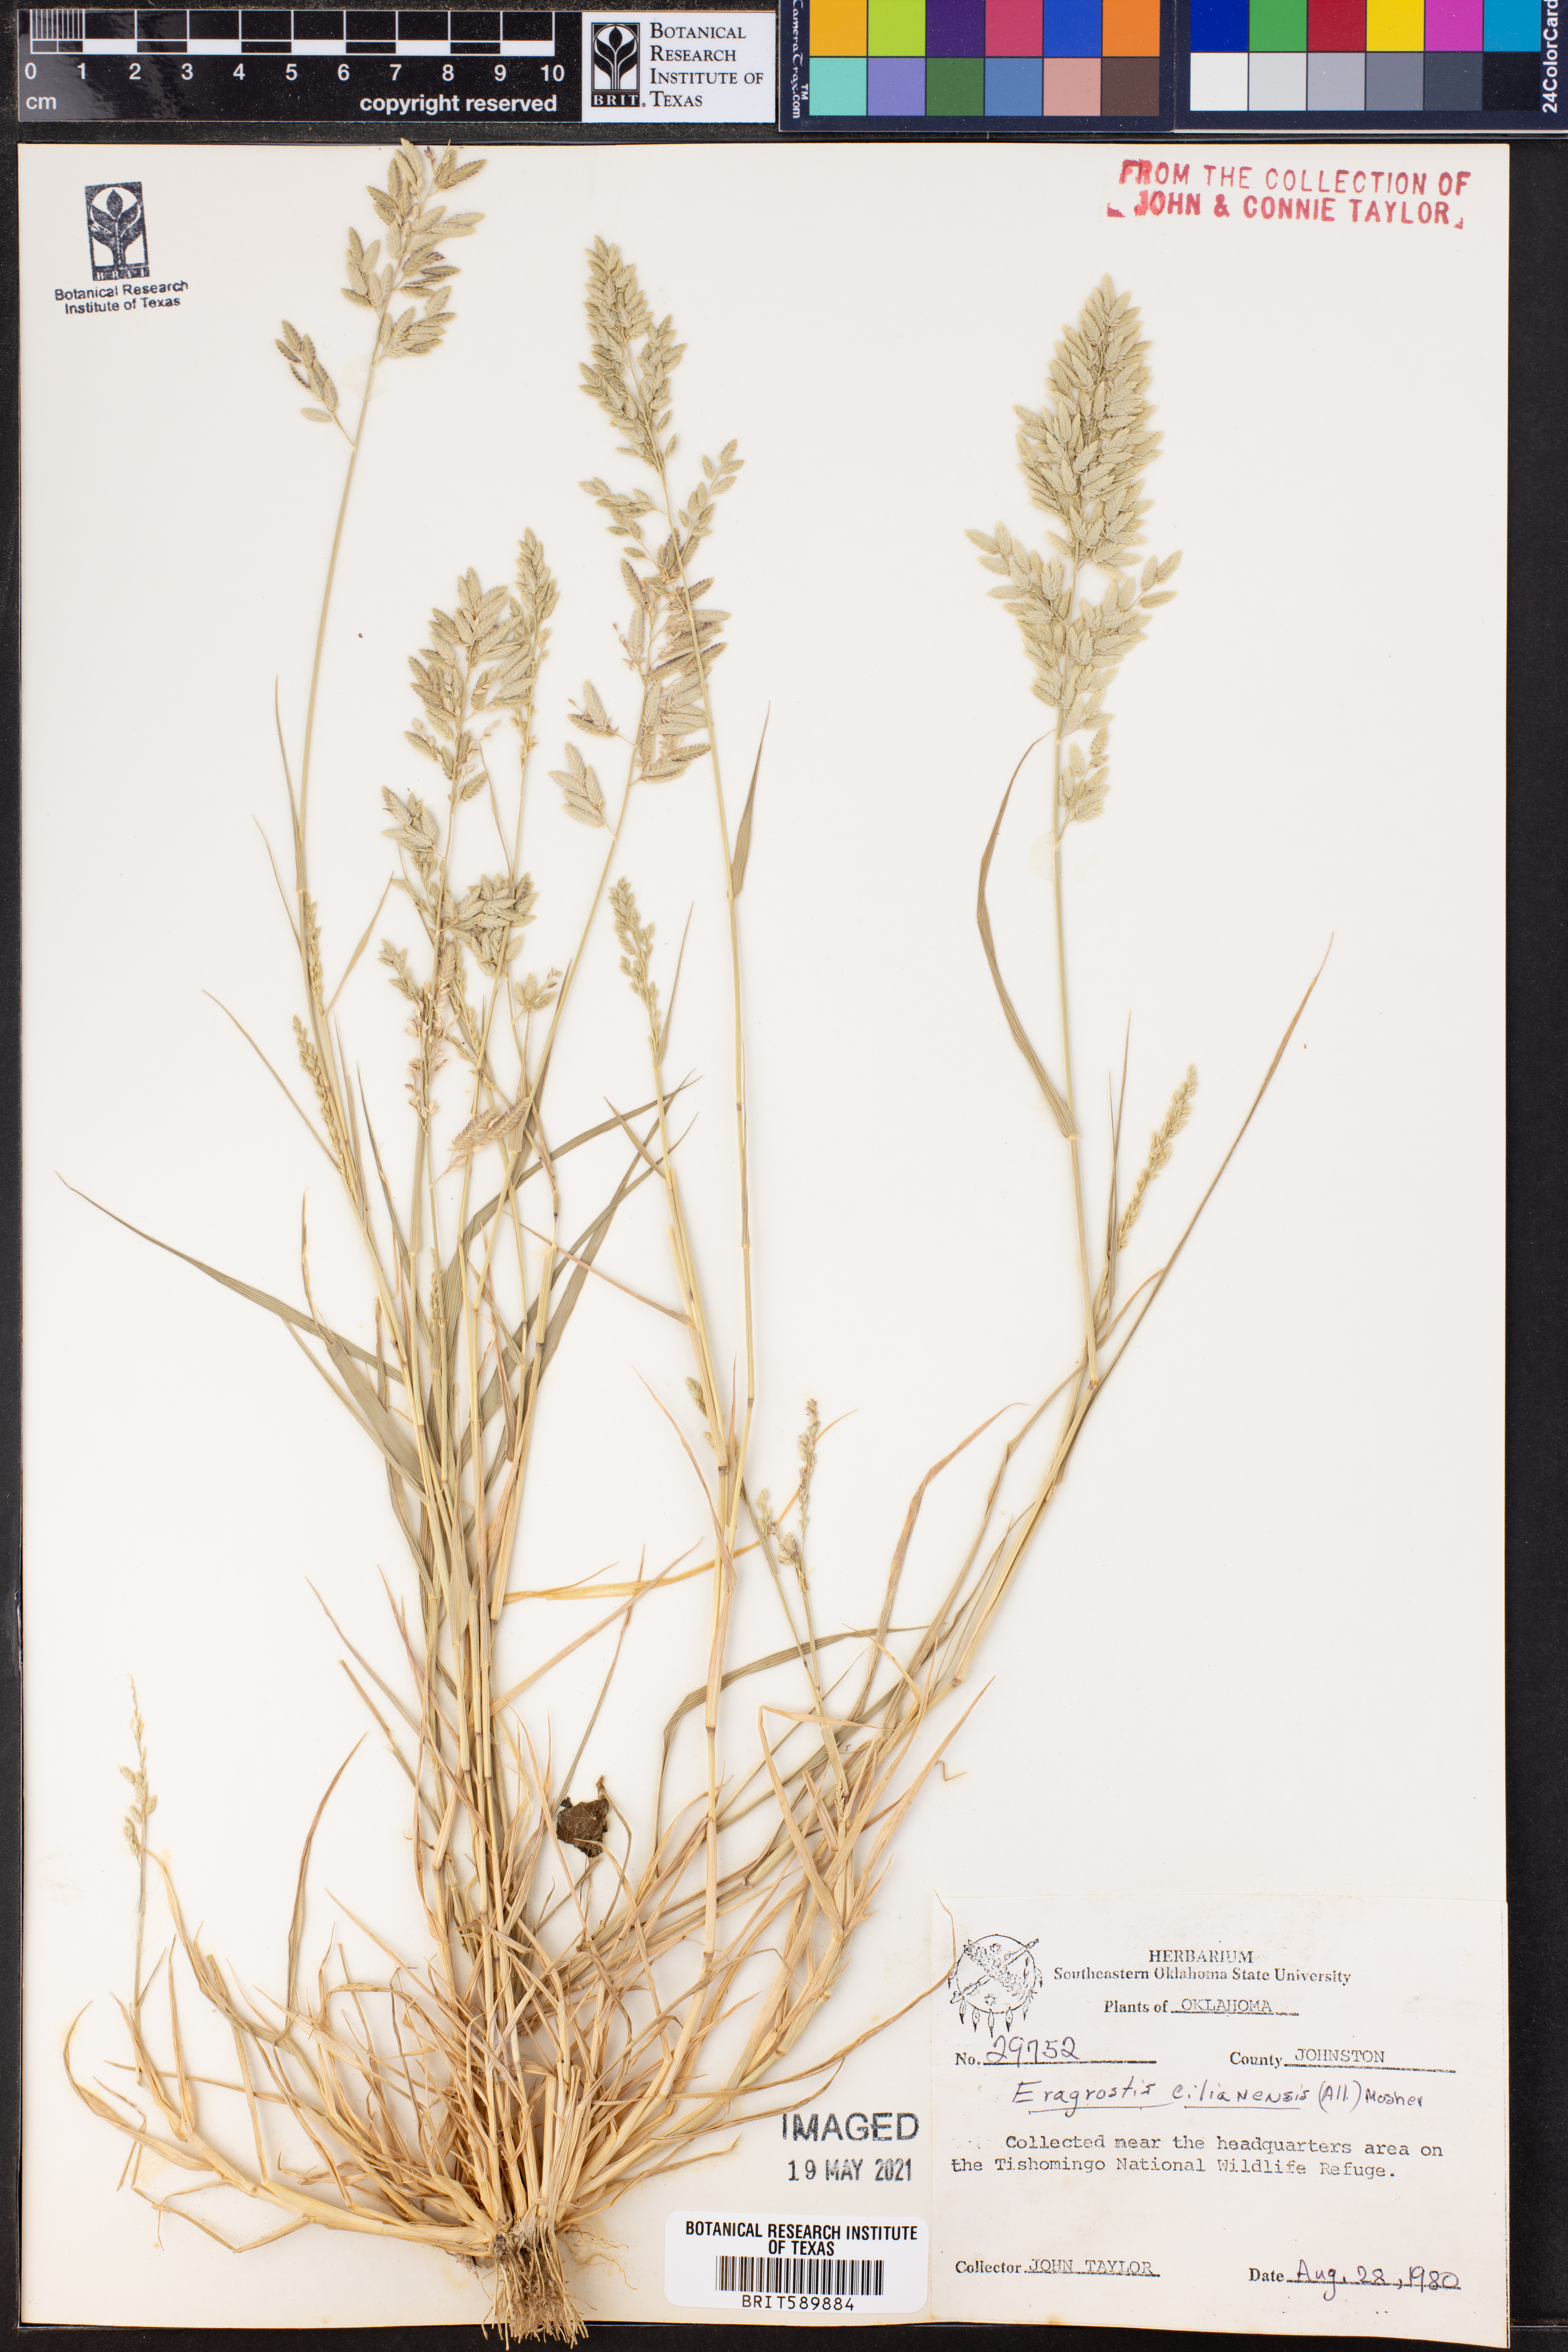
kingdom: Plantae
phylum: Tracheophyta
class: Liliopsida
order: Poales
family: Poaceae
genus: Eragrostis
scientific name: Eragrostis cilianensis
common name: Stinkgrass
